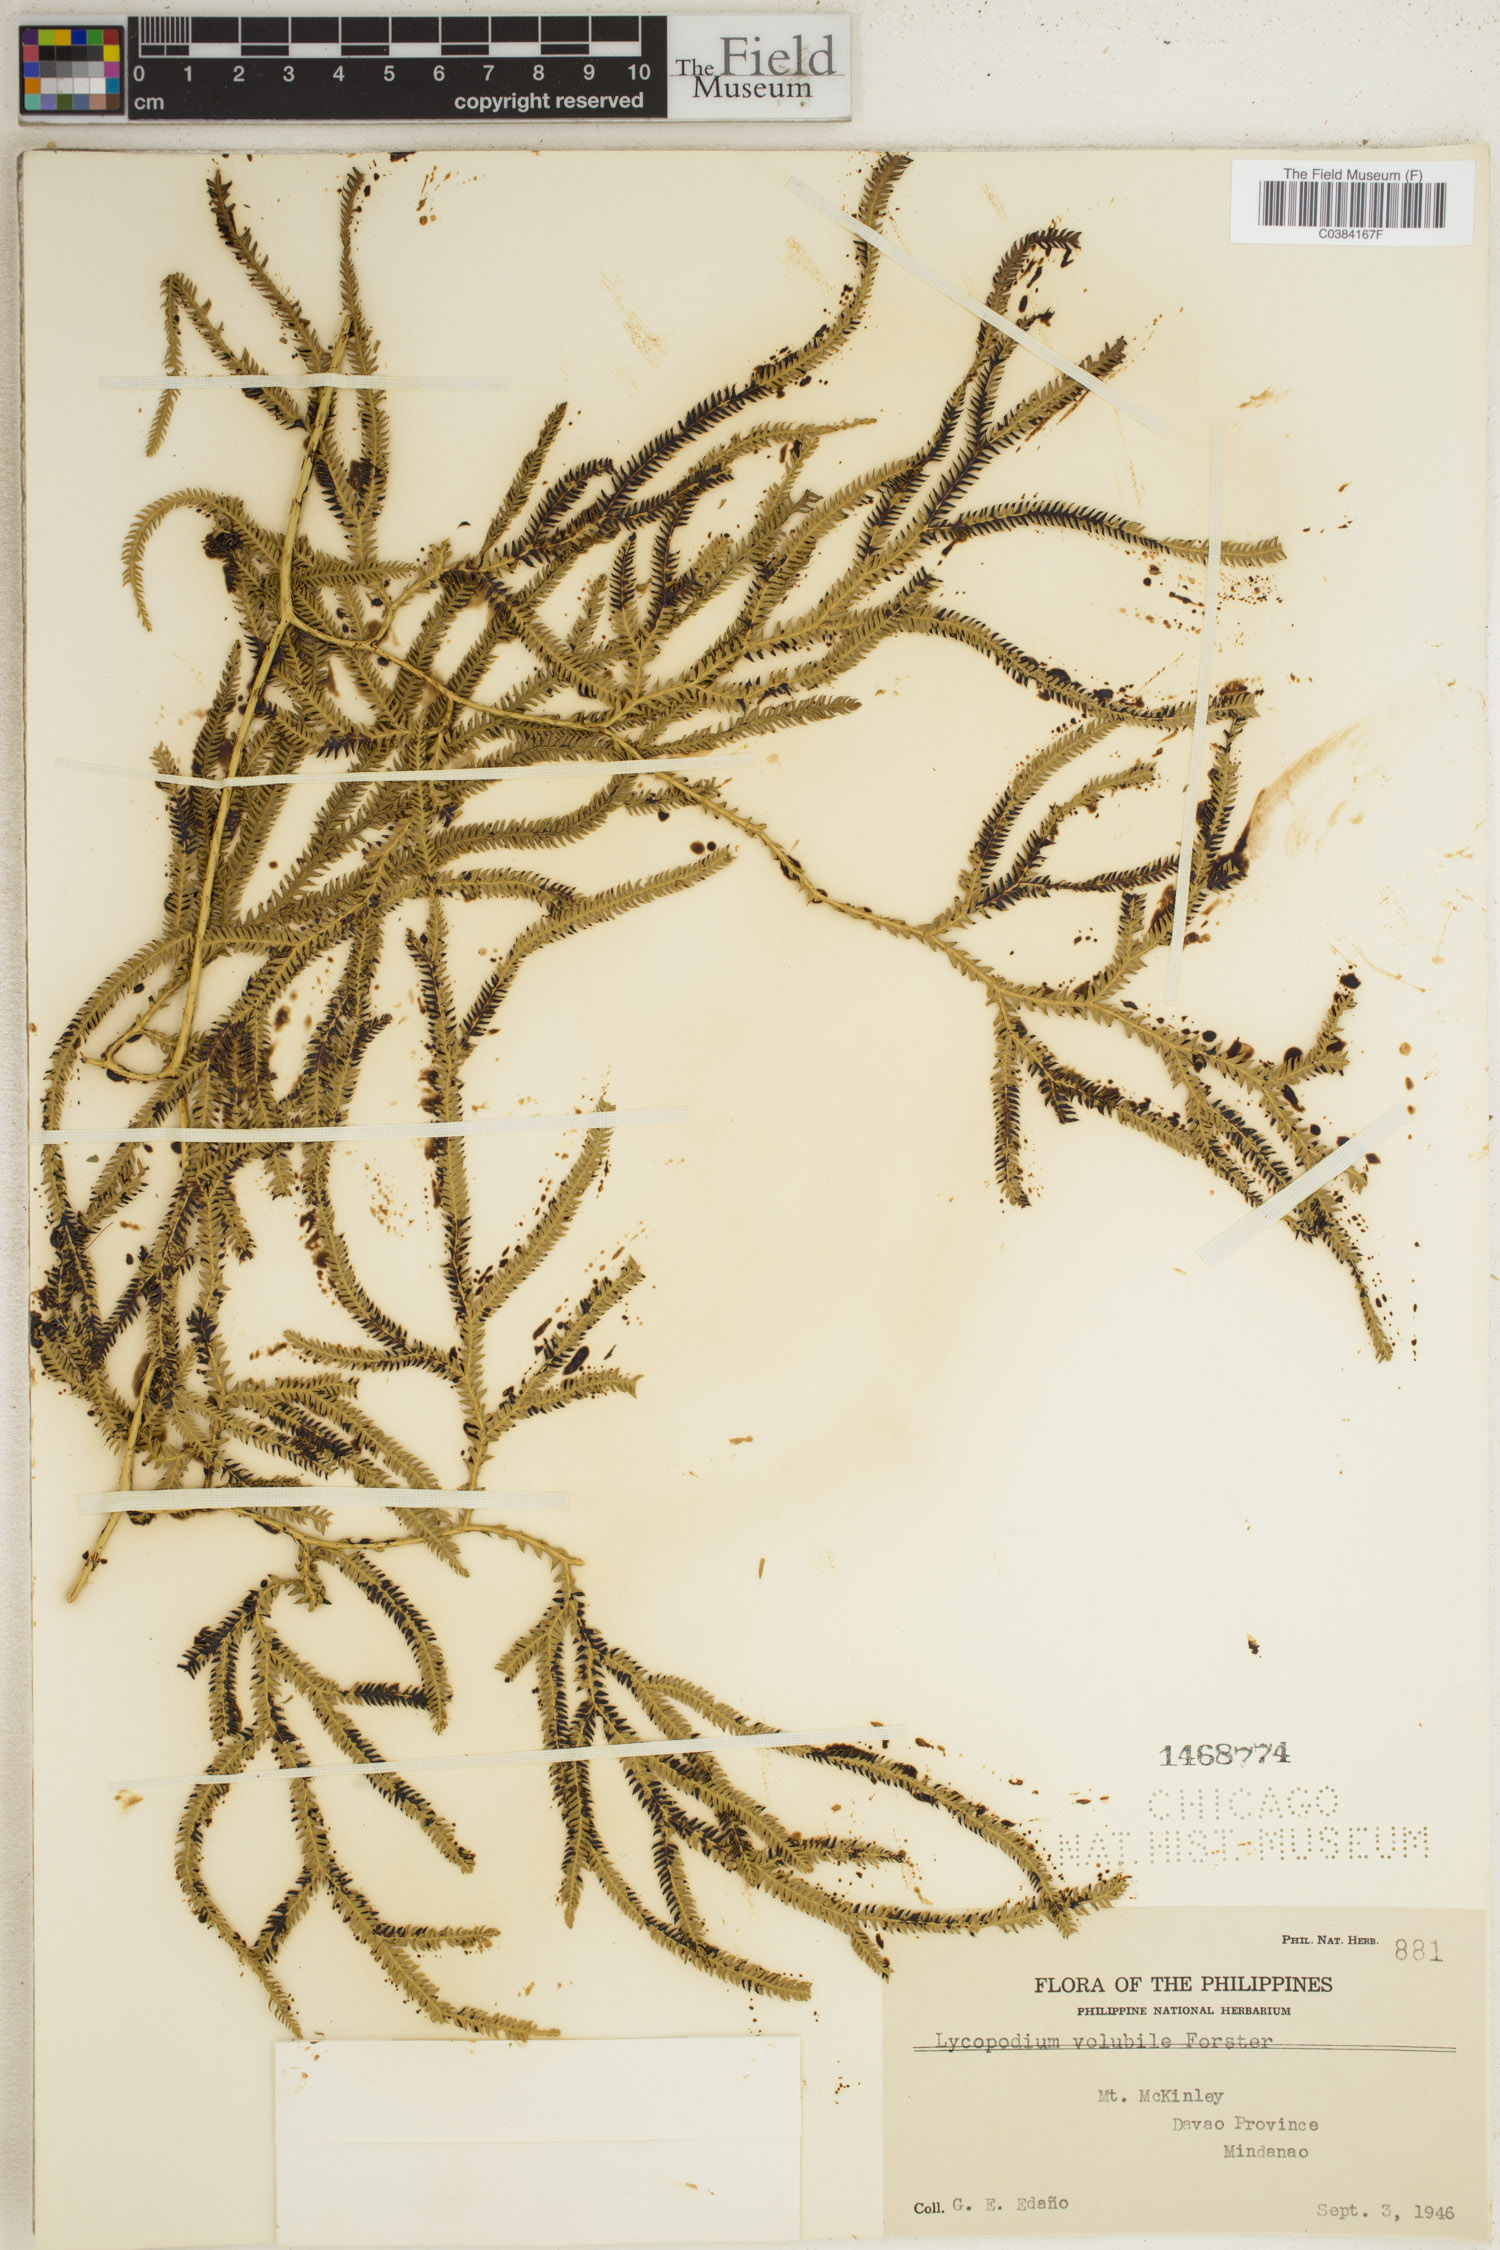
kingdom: Plantae
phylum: Tracheophyta
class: Lycopodiopsida
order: Lycopodiales
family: Lycopodiaceae
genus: Pseudodiphasium
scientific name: Pseudodiphasium volubile
